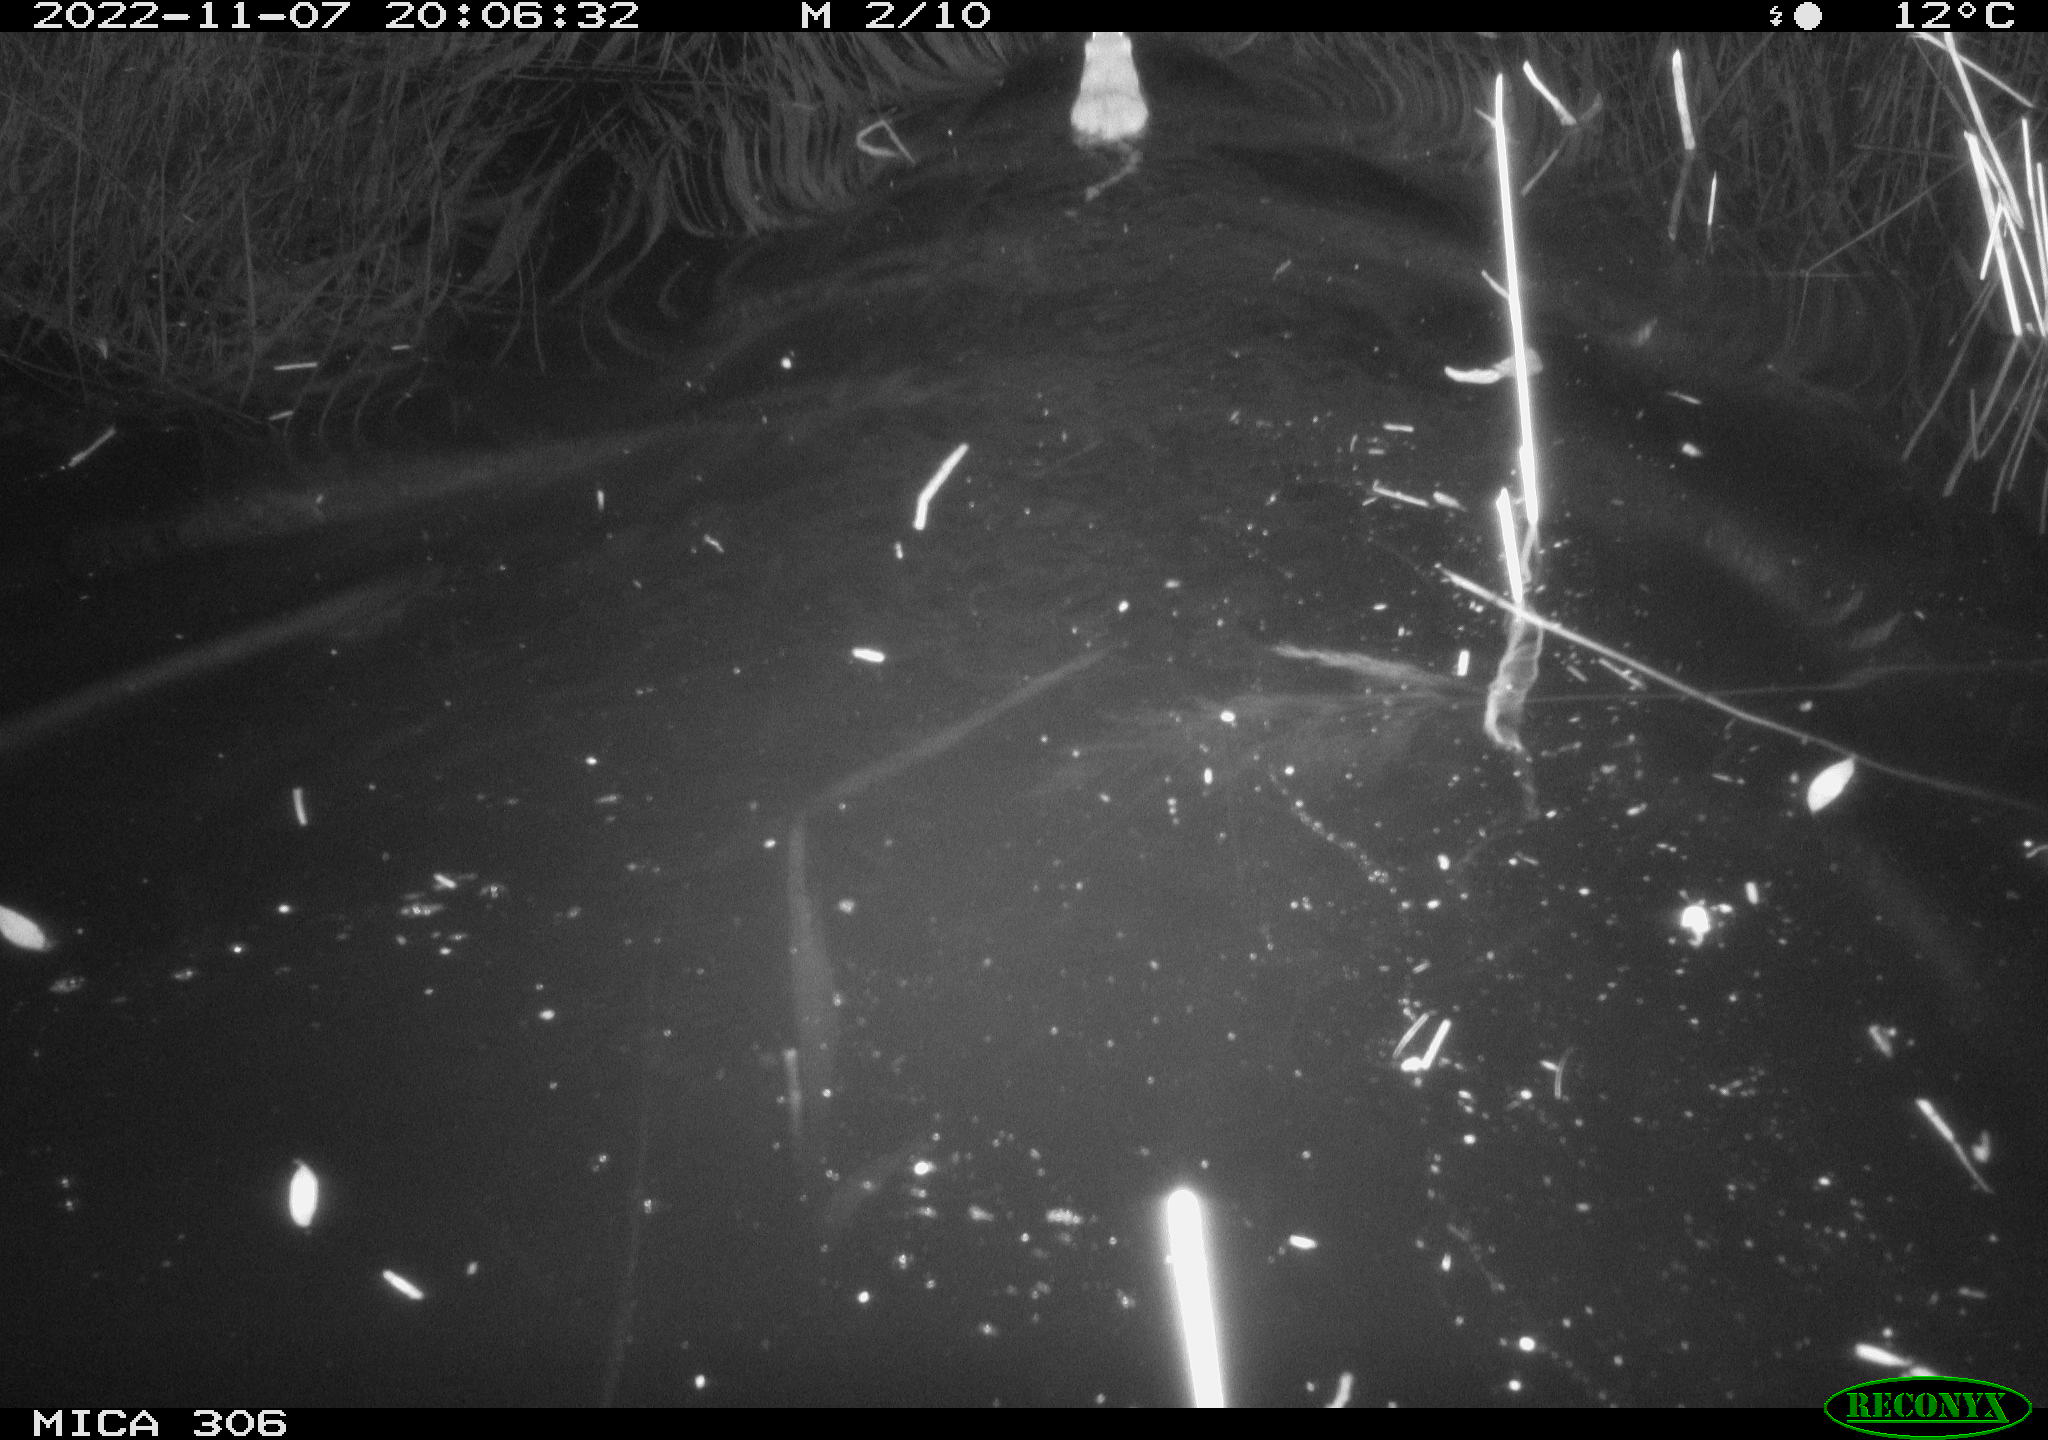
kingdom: Animalia
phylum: Chordata
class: Mammalia
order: Rodentia
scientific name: Rodentia
